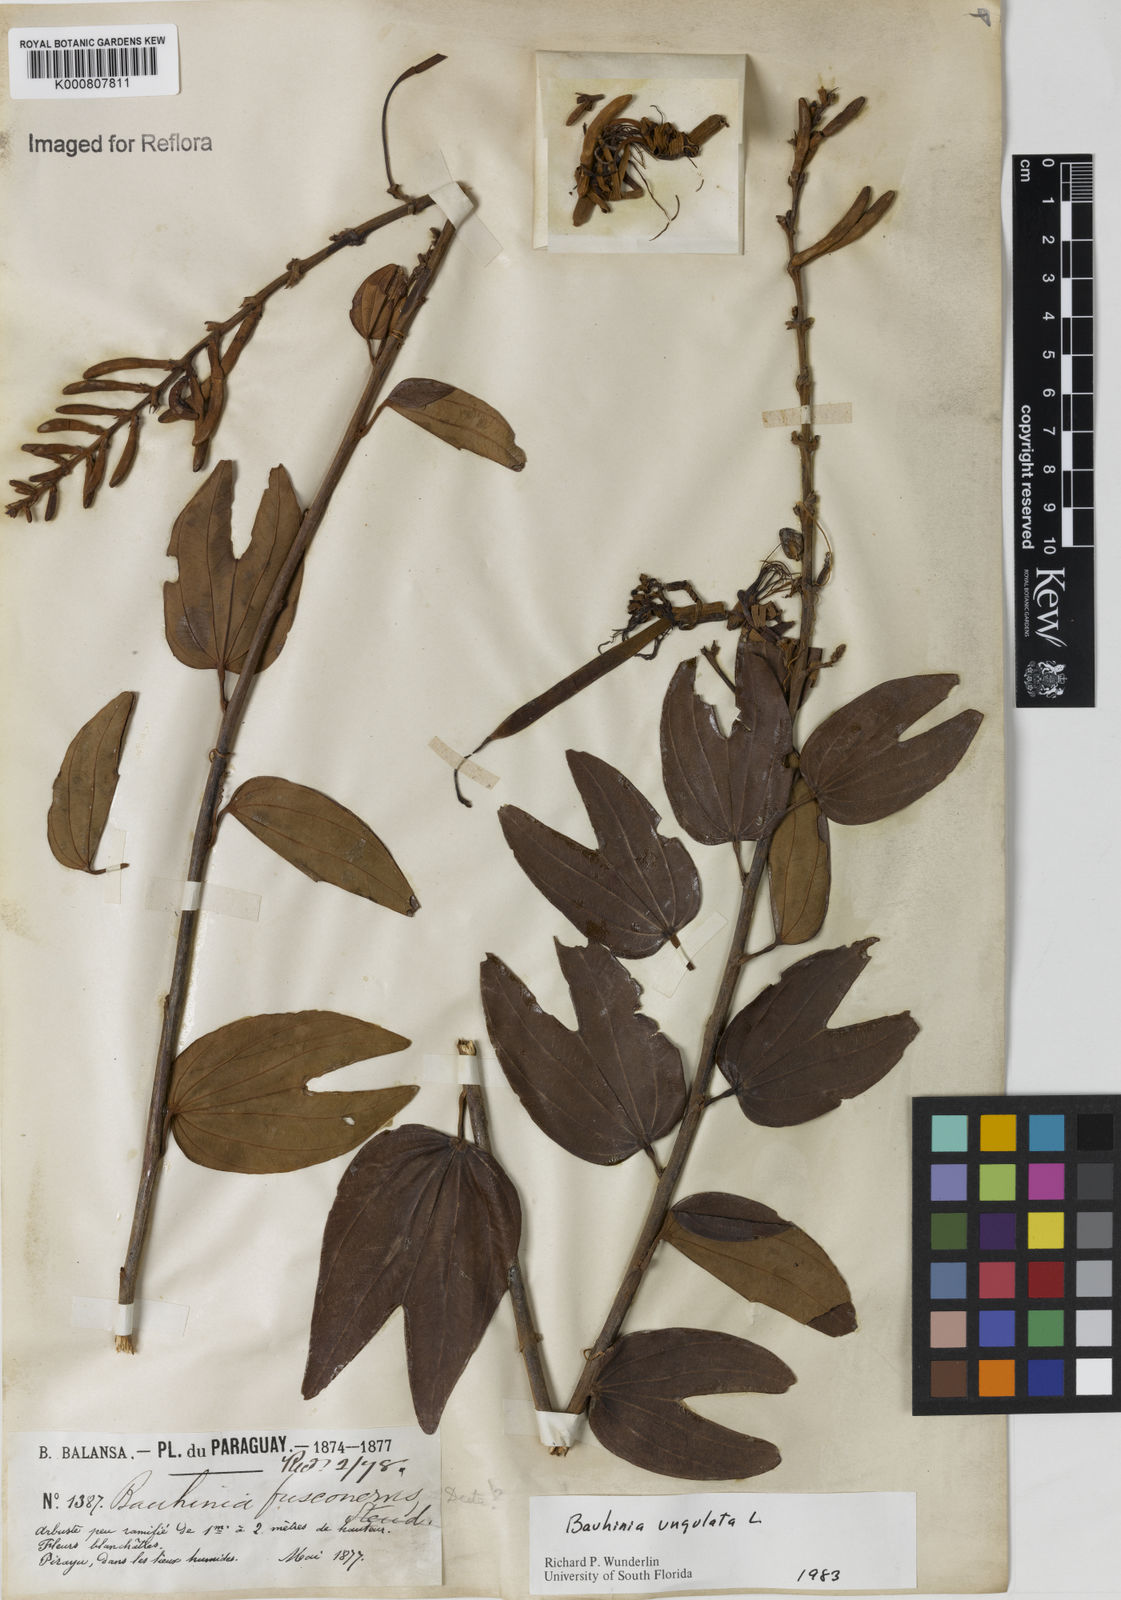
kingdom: Plantae
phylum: Tracheophyta
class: Magnoliopsida
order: Fabales
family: Fabaceae
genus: Bauhinia
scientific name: Bauhinia ungulata
